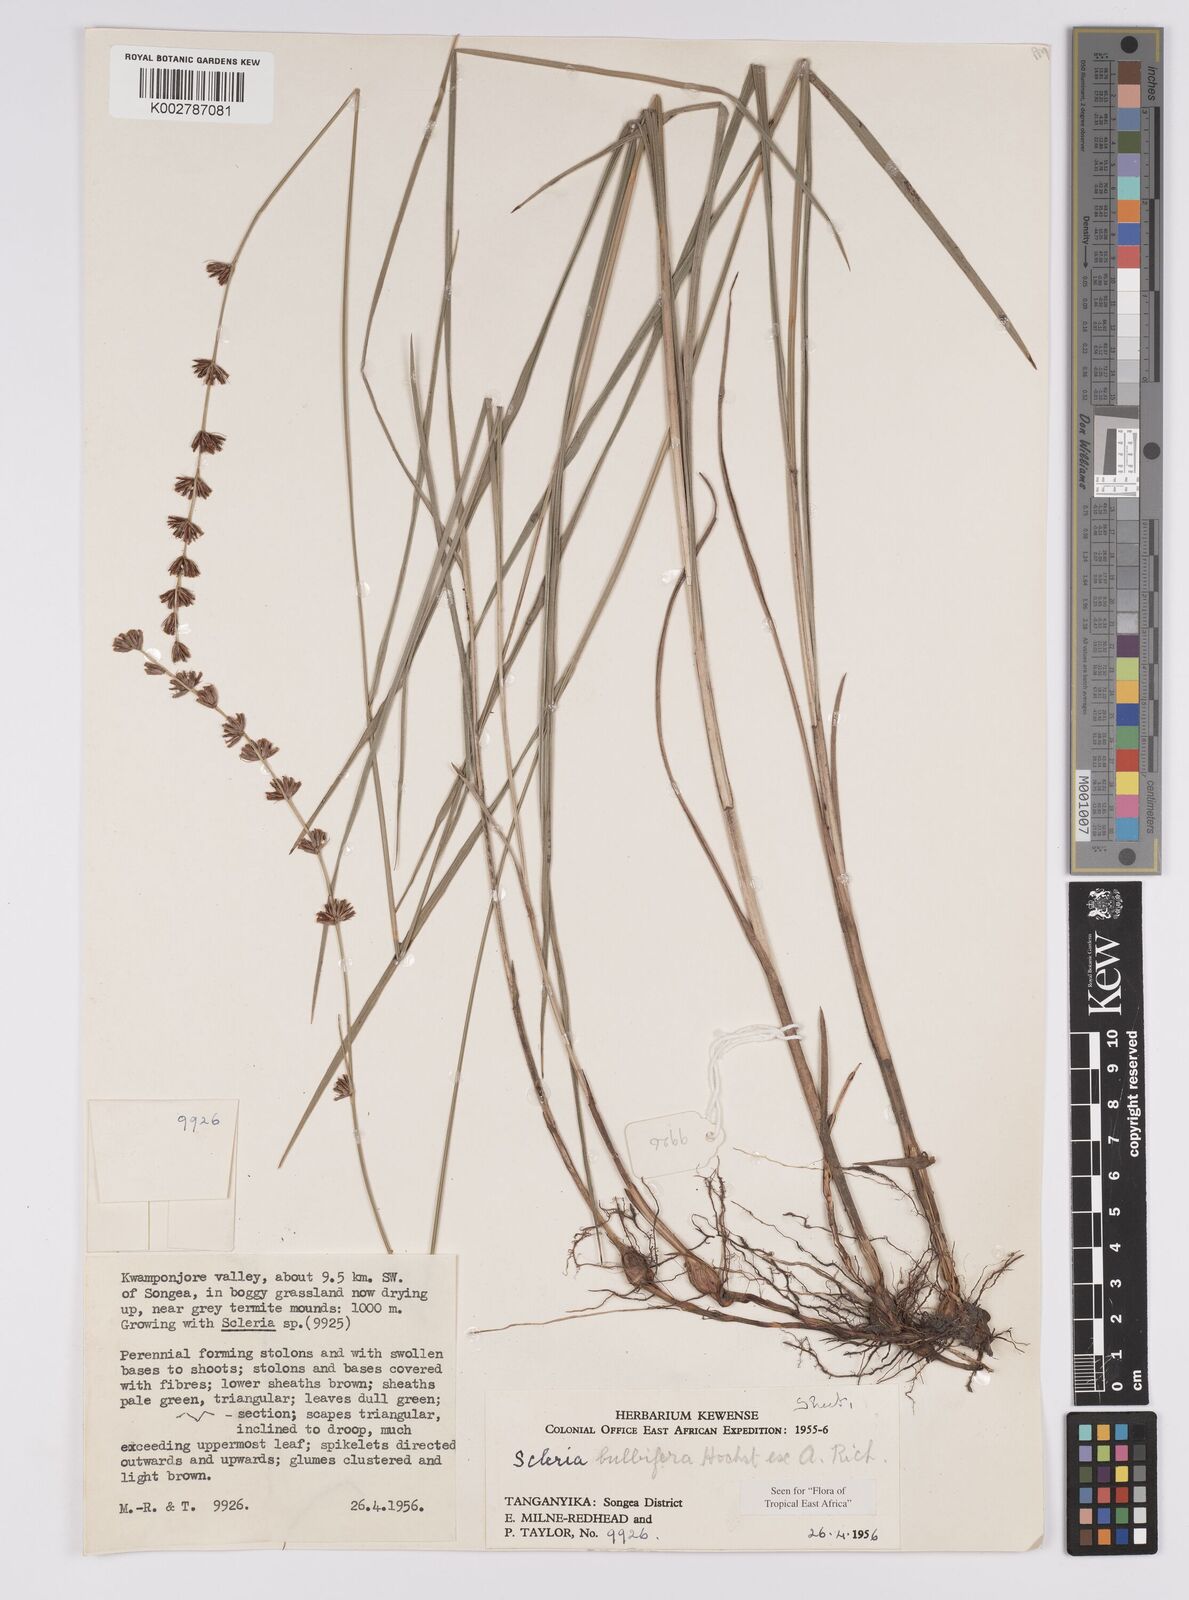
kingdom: Plantae
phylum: Tracheophyta
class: Liliopsida
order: Poales
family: Cyperaceae
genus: Scleria
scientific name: Scleria bulbifera
